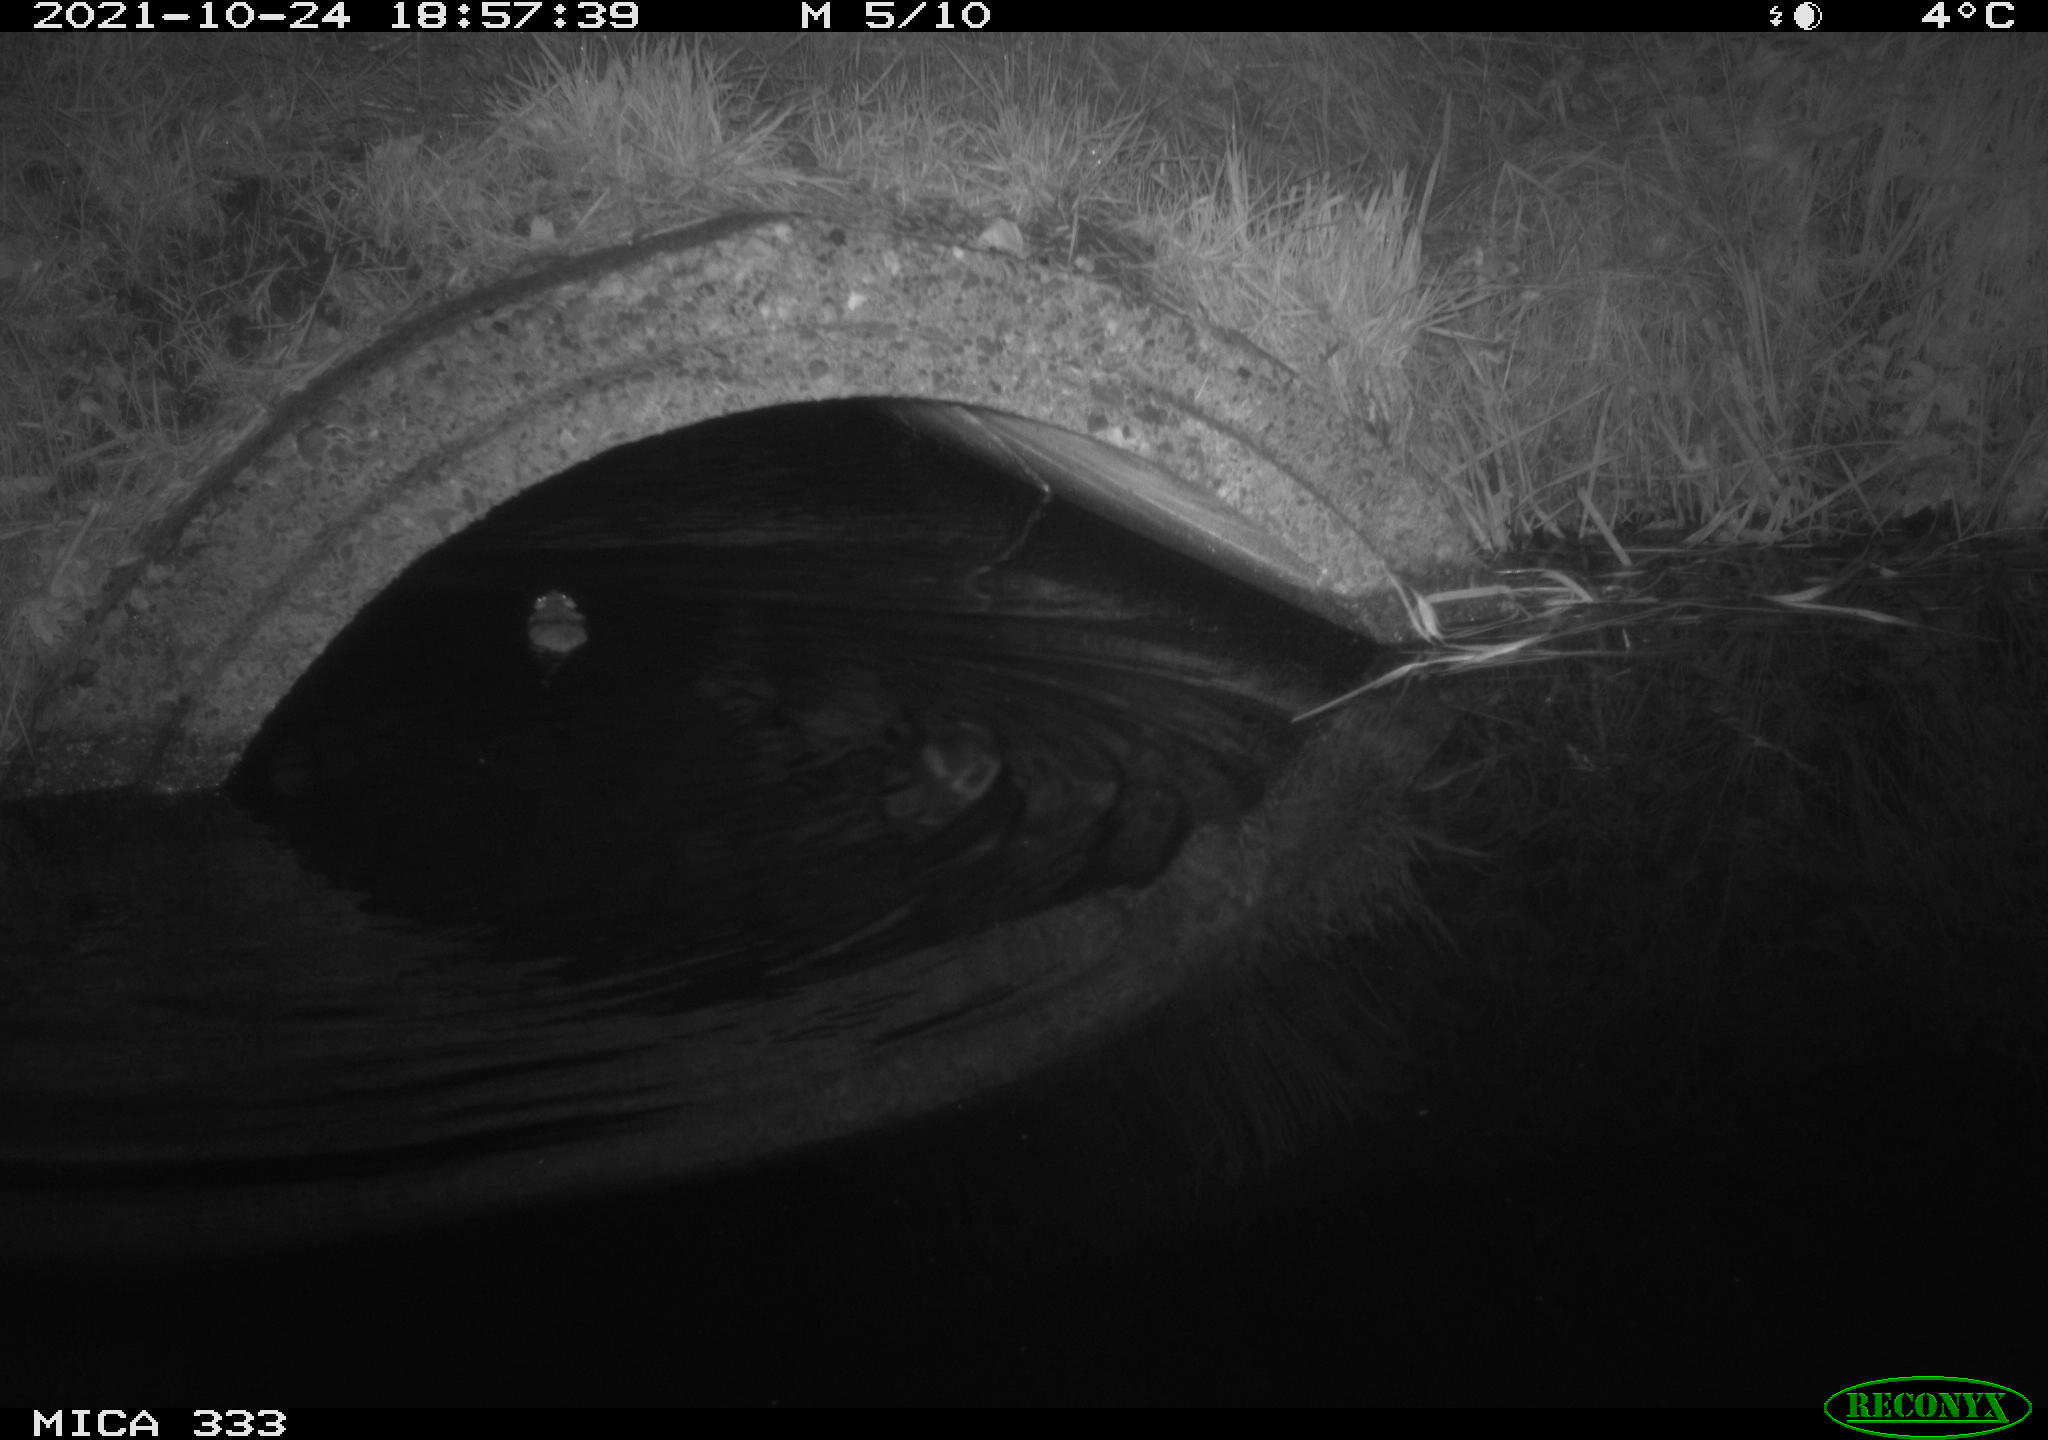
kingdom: Animalia
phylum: Chordata
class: Mammalia
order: Rodentia
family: Muridae
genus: Rattus
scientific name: Rattus norvegicus
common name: Brown rat
